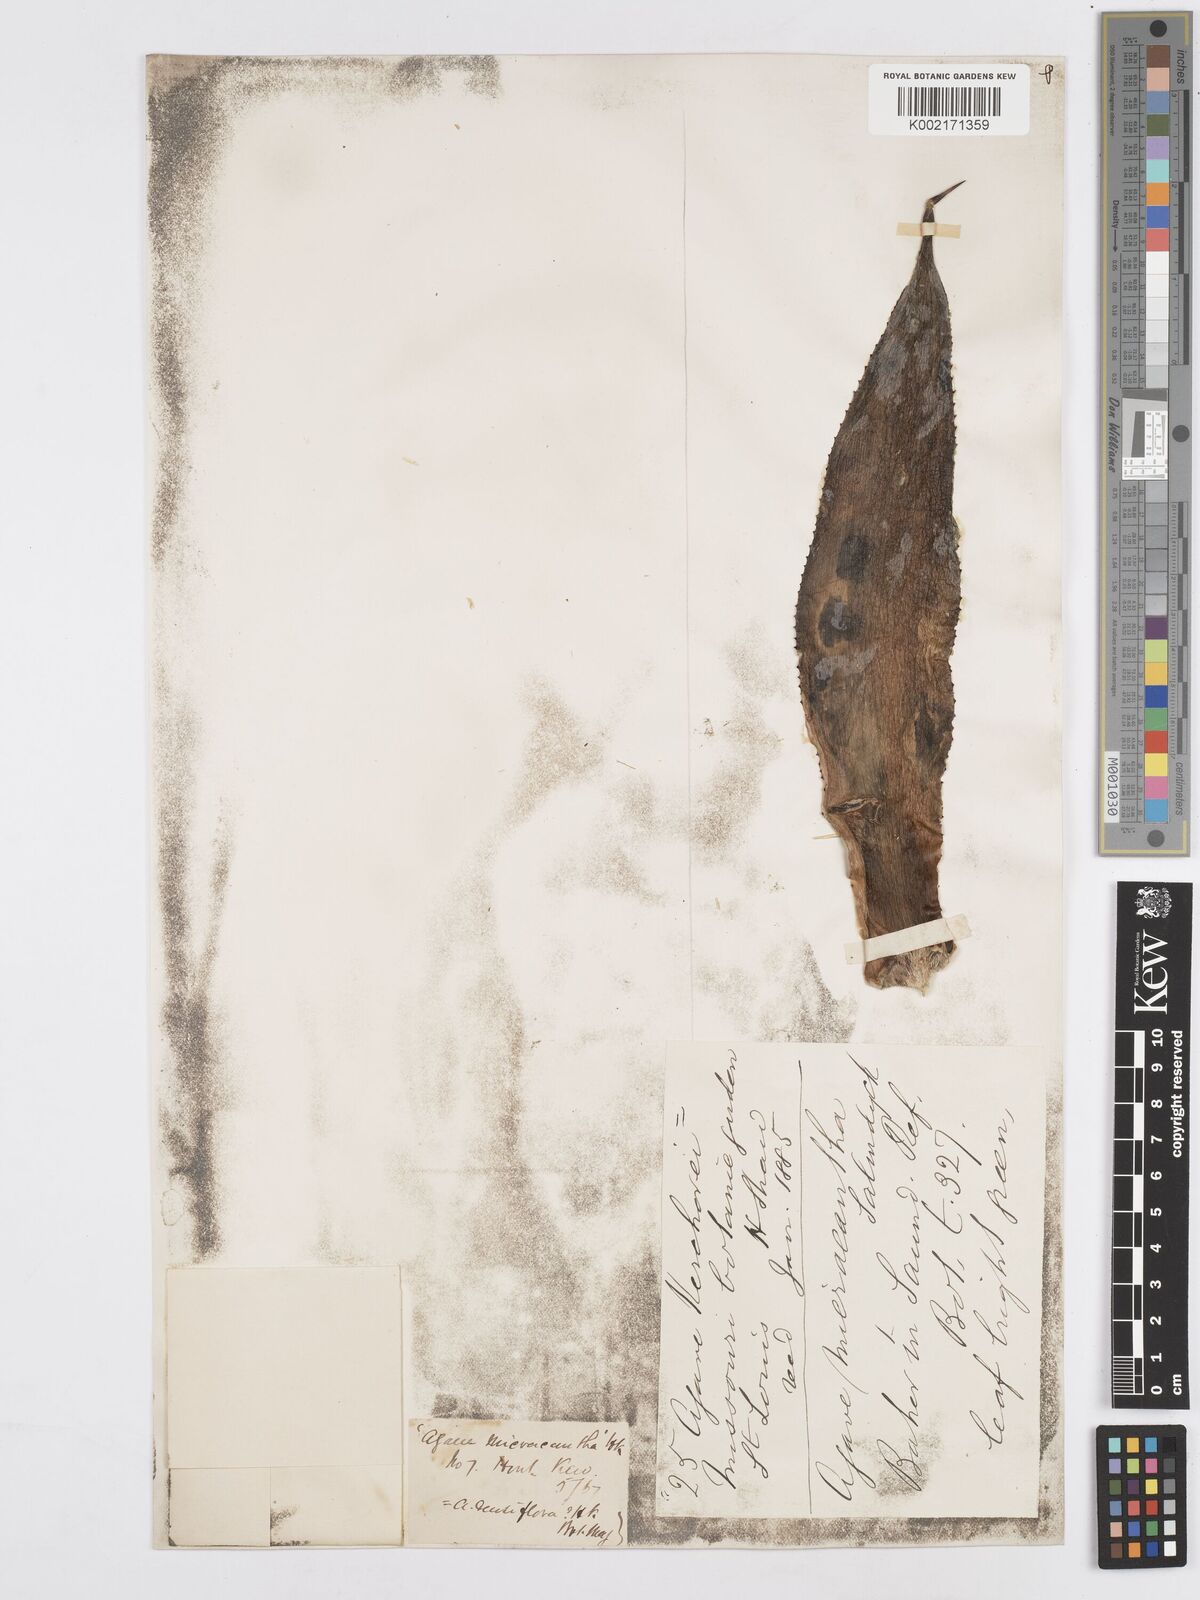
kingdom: Plantae
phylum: Tracheophyta
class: Liliopsida
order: Asparagales
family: Asparagaceae
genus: Agave
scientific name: Agave mitis
